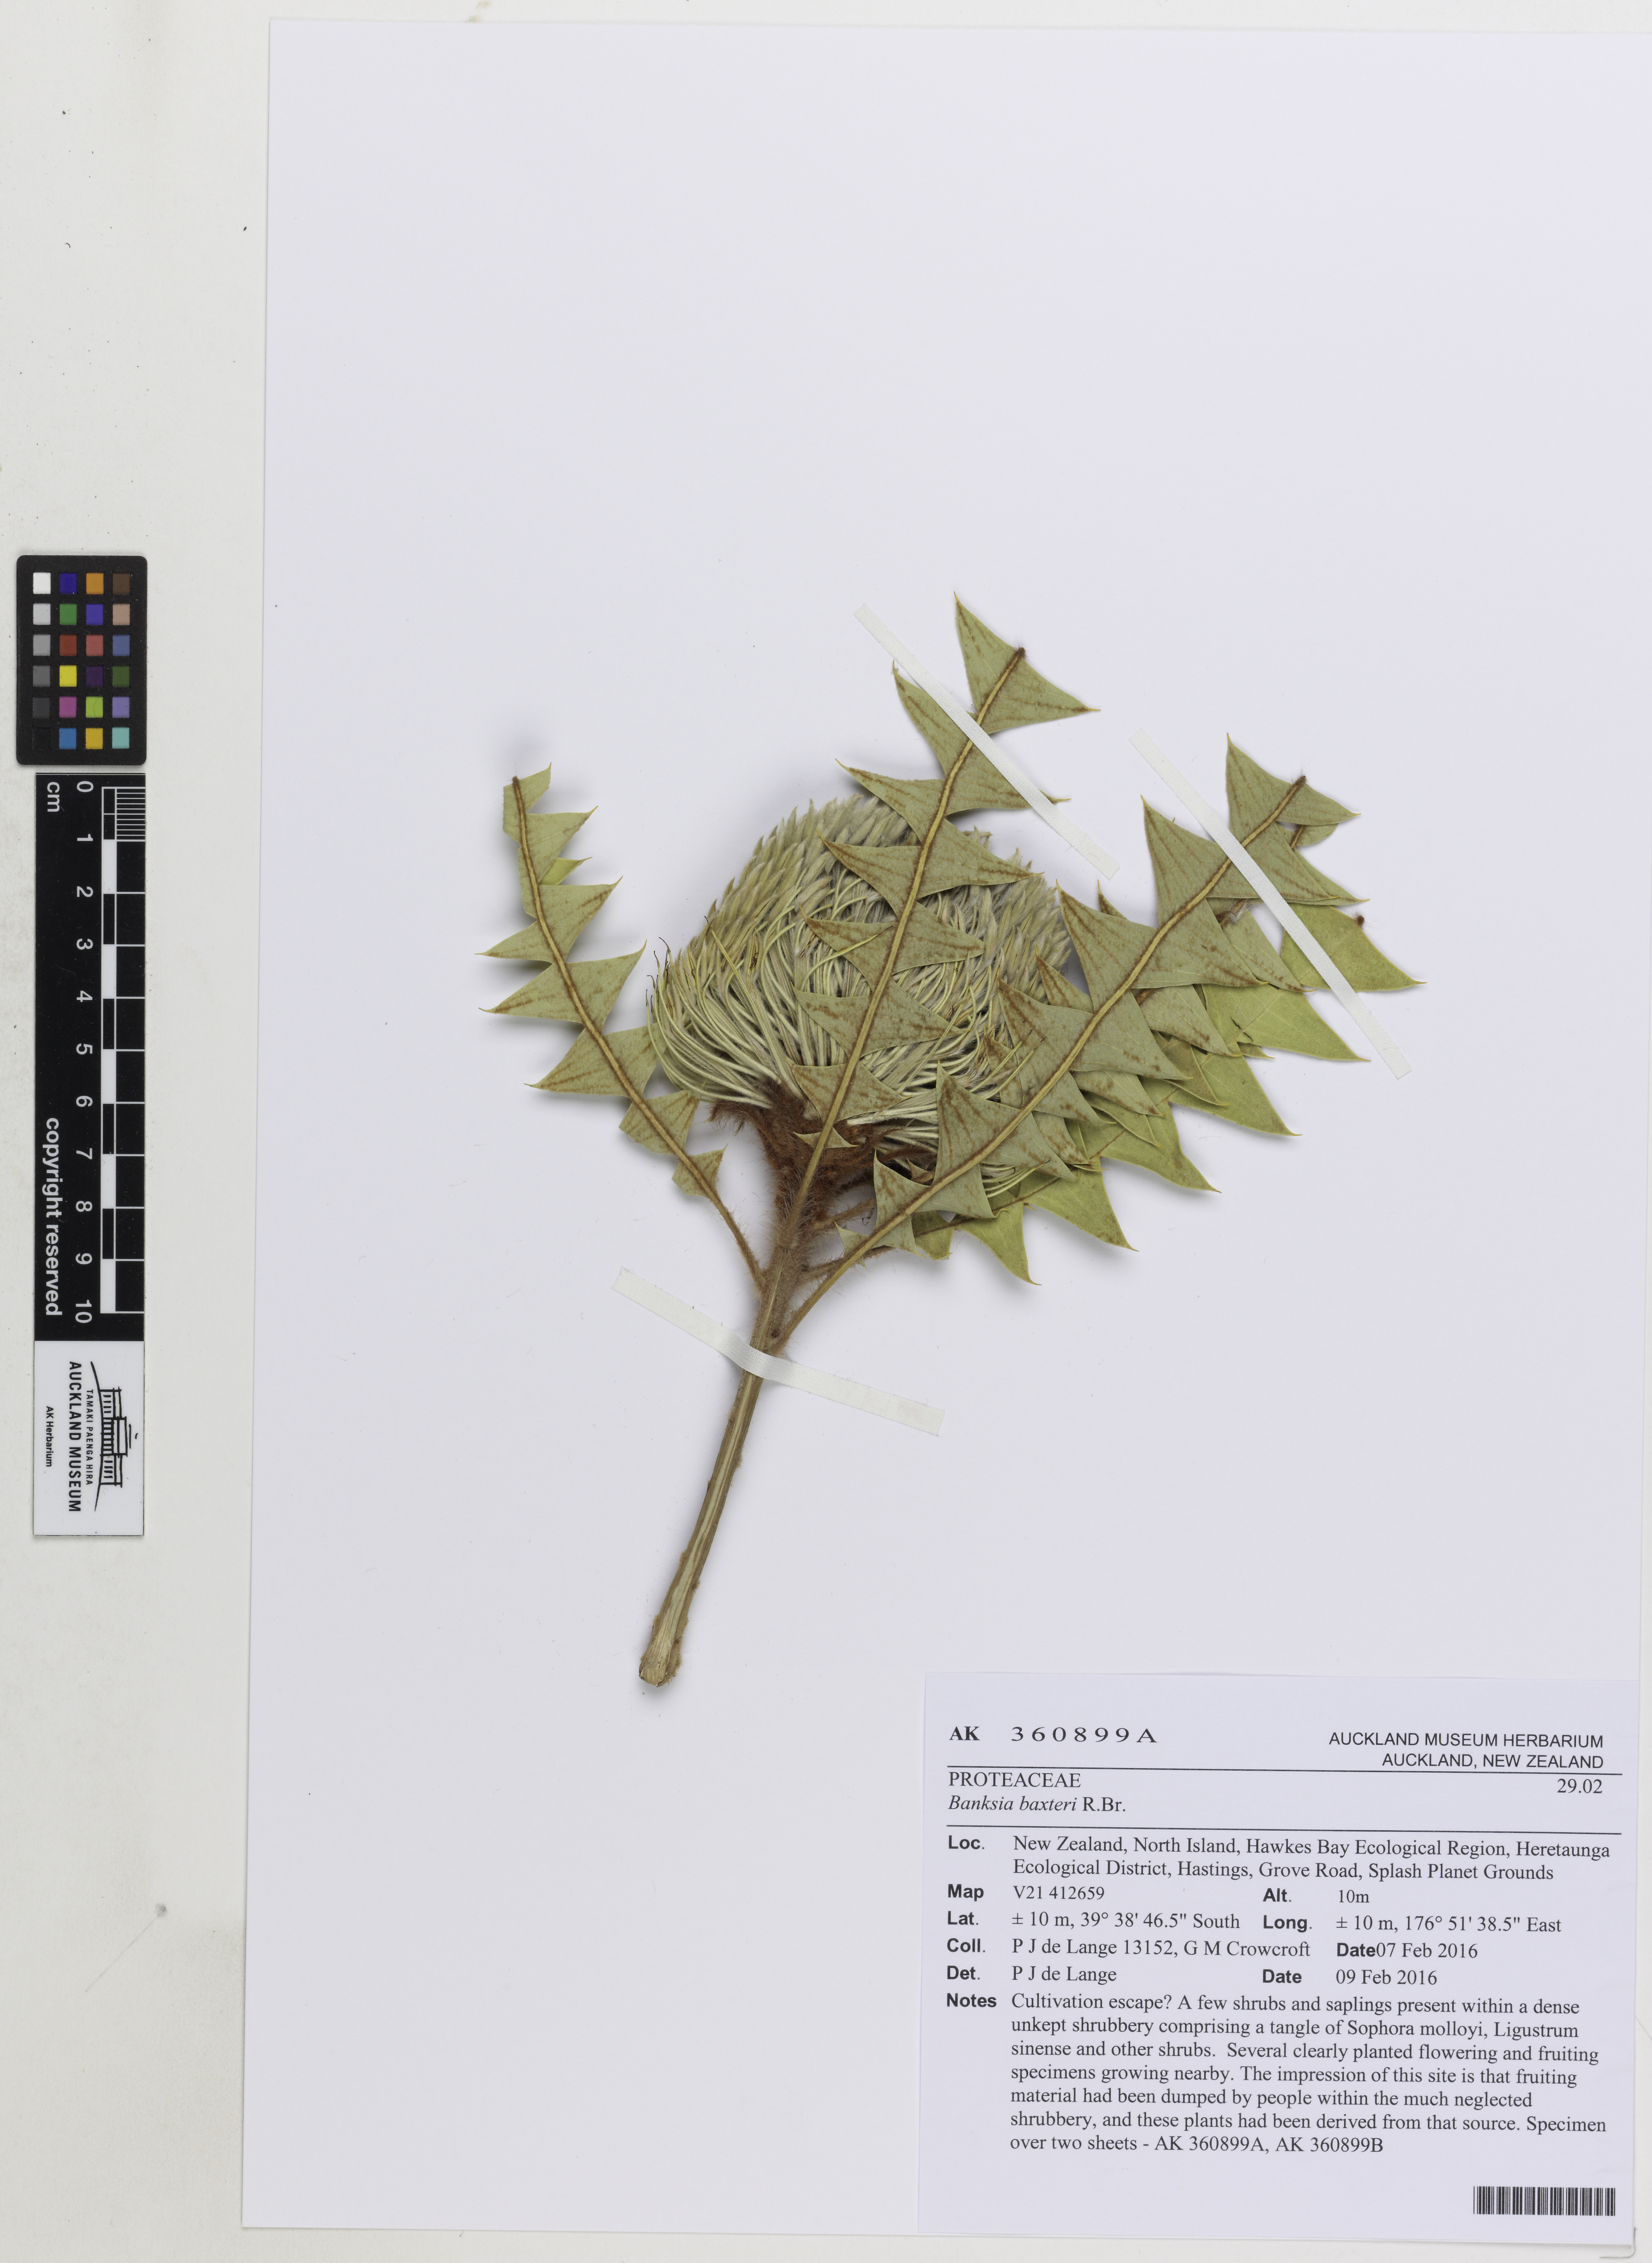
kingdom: Plantae
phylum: Tracheophyta
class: Magnoliopsida
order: Proteales
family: Proteaceae
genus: Banksia
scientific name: Banksia baxteri
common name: Bird's-nest banksia
